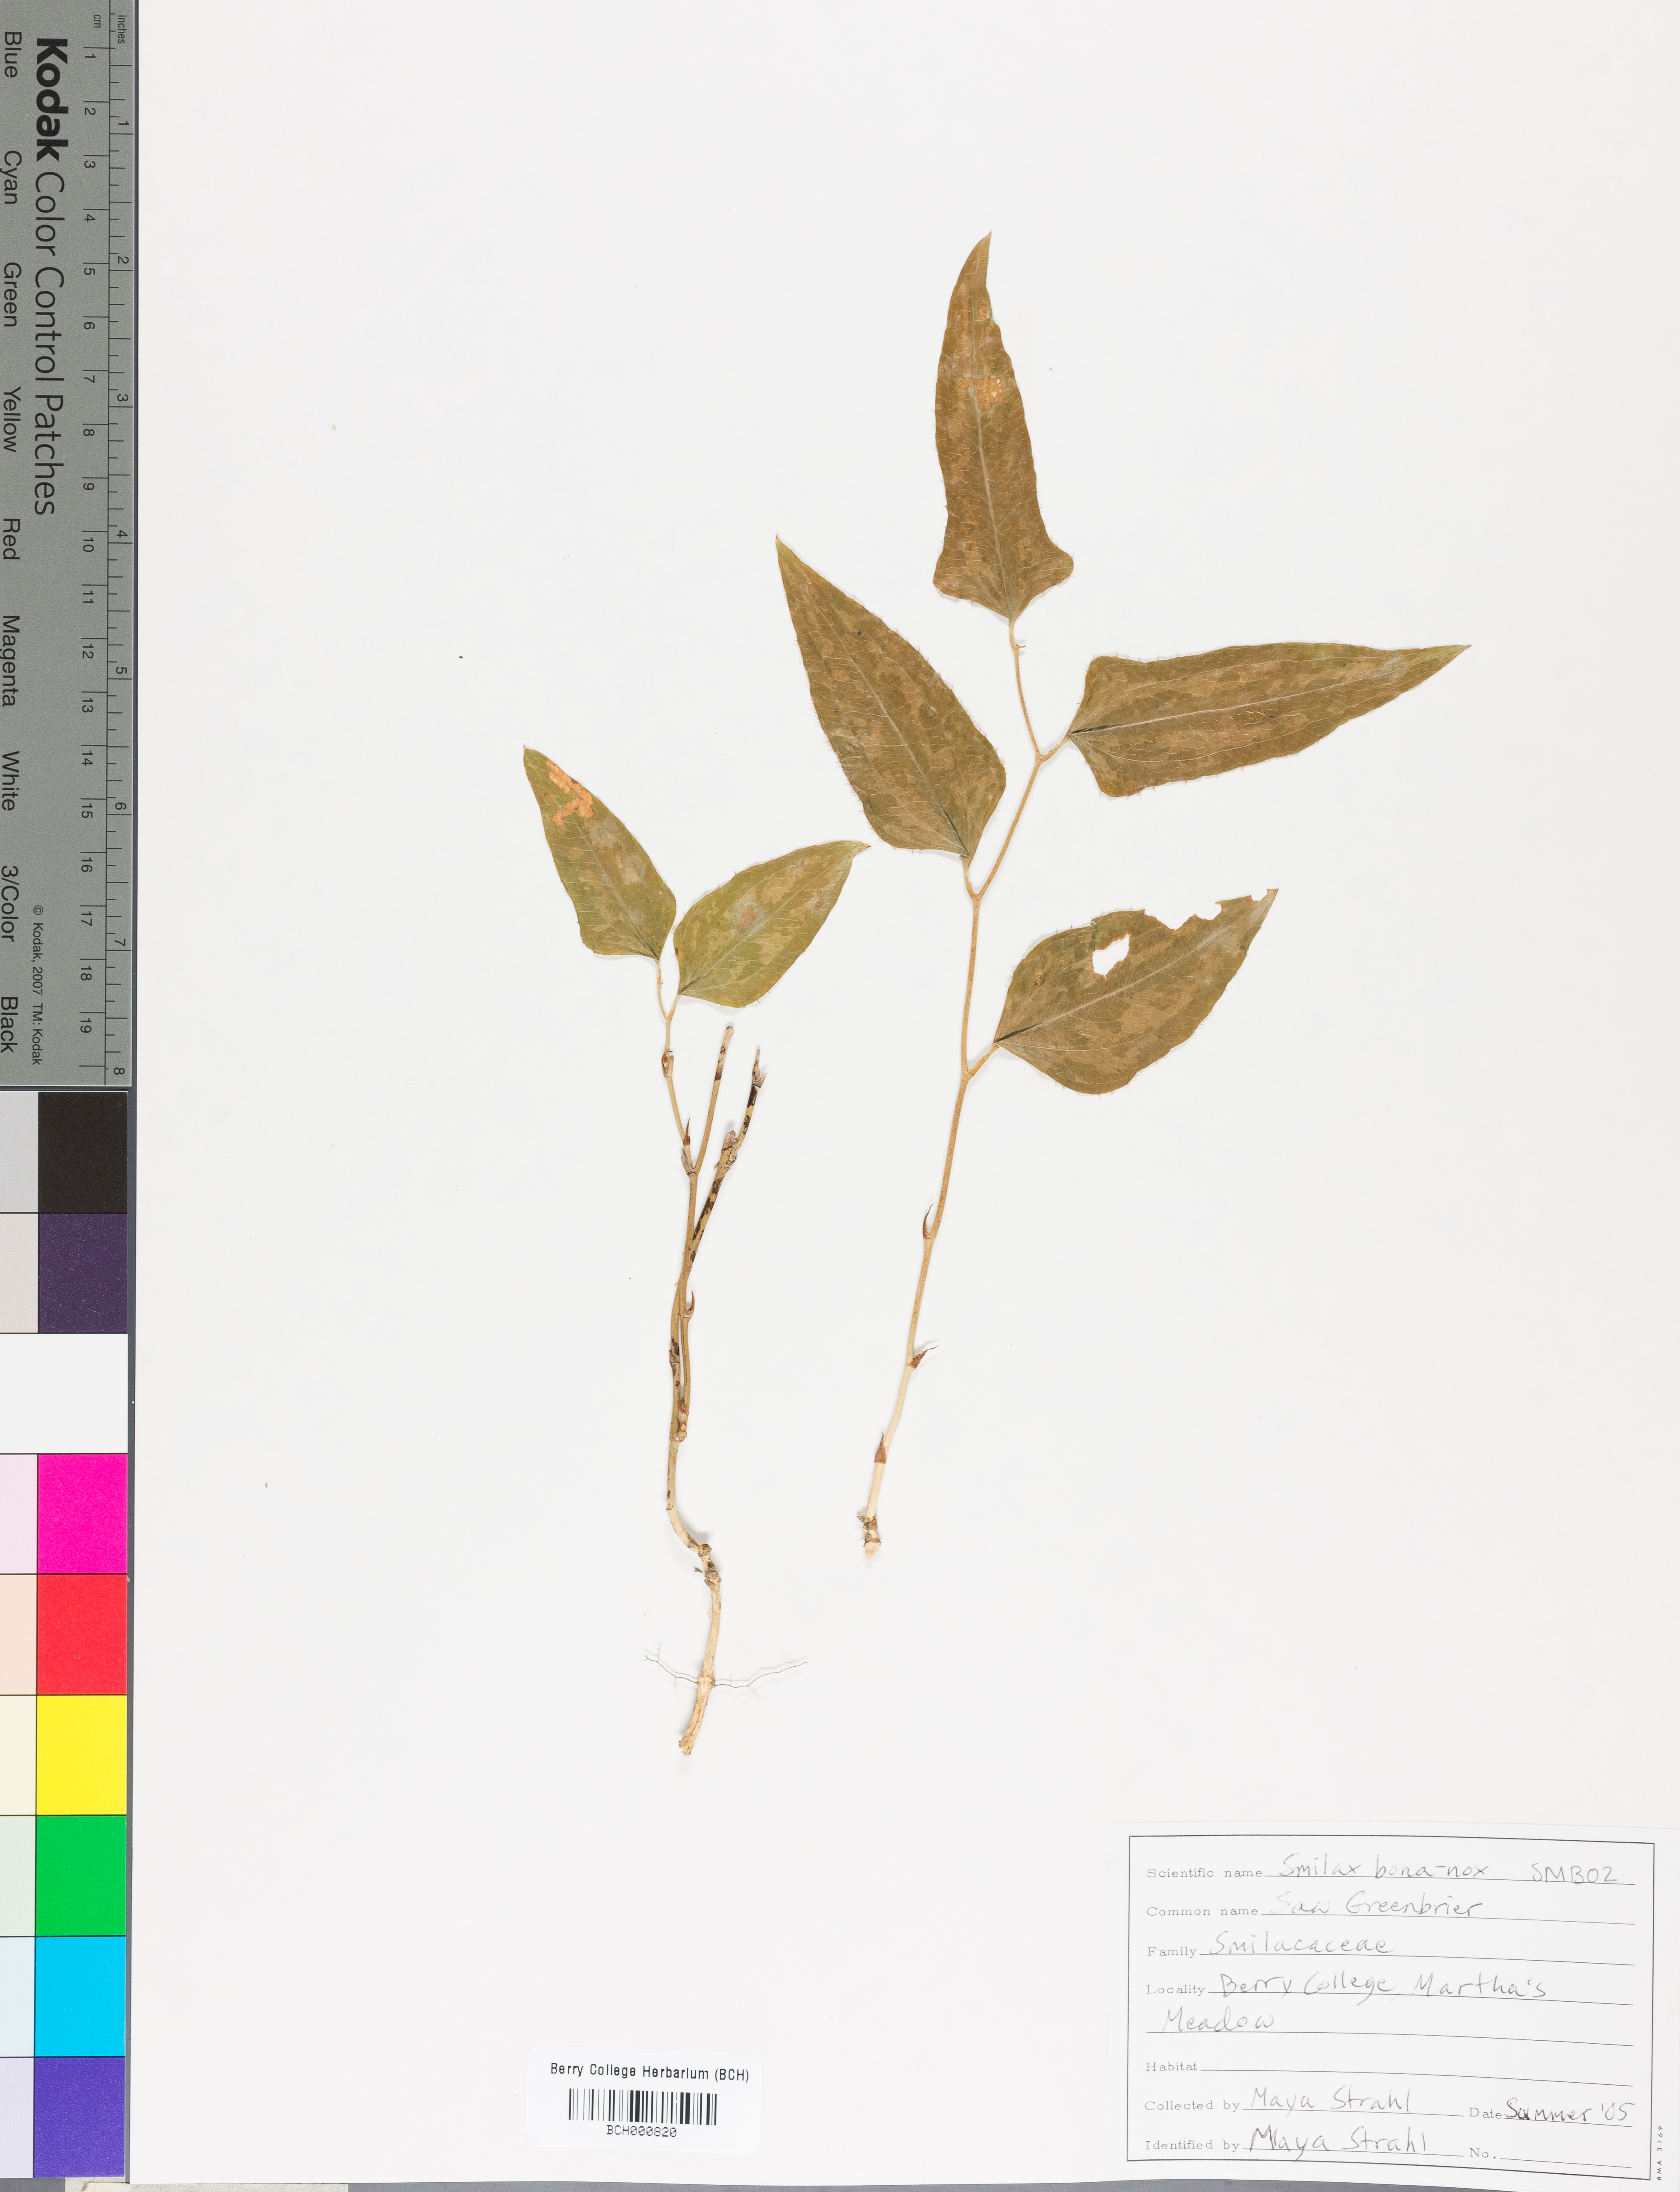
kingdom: Plantae
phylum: Tracheophyta
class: Liliopsida
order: Liliales
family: Smilacaceae
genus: Smilax
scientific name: Smilax bona-nox
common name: Catbrier
